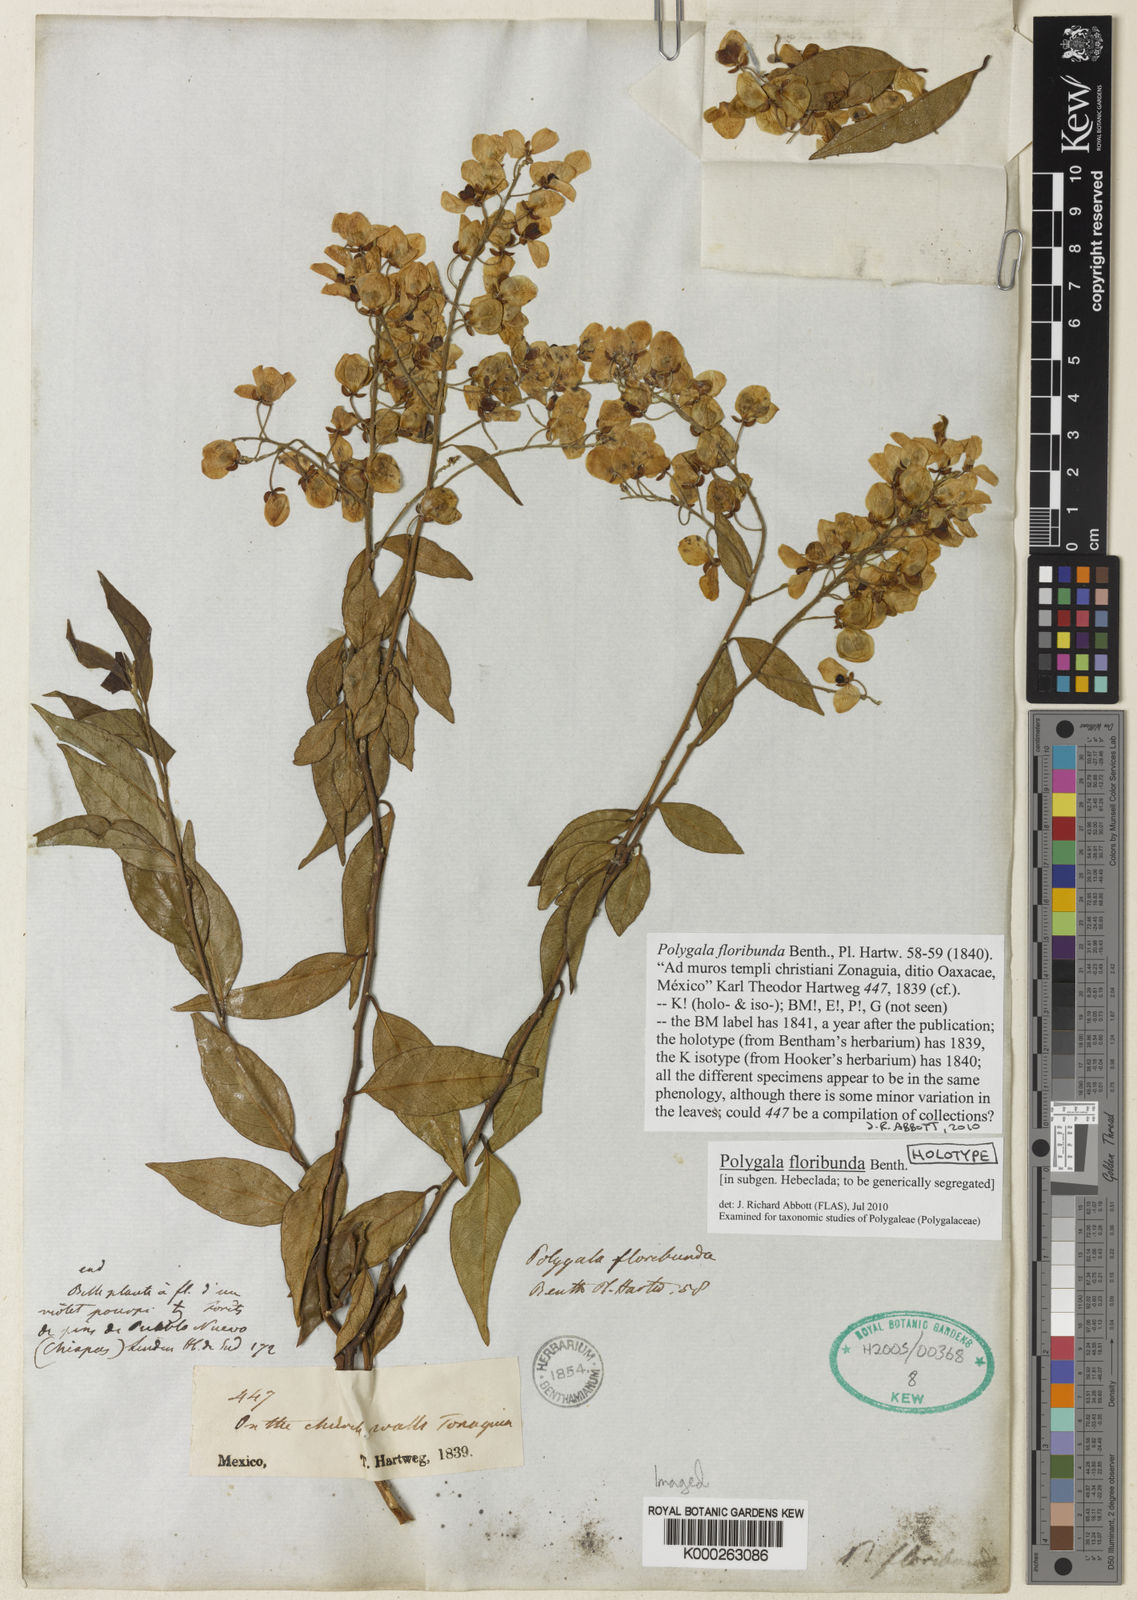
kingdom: Plantae
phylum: Tracheophyta
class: Magnoliopsida
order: Fabales
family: Polygalaceae
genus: Asemeia
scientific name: Asemeia floribunda
